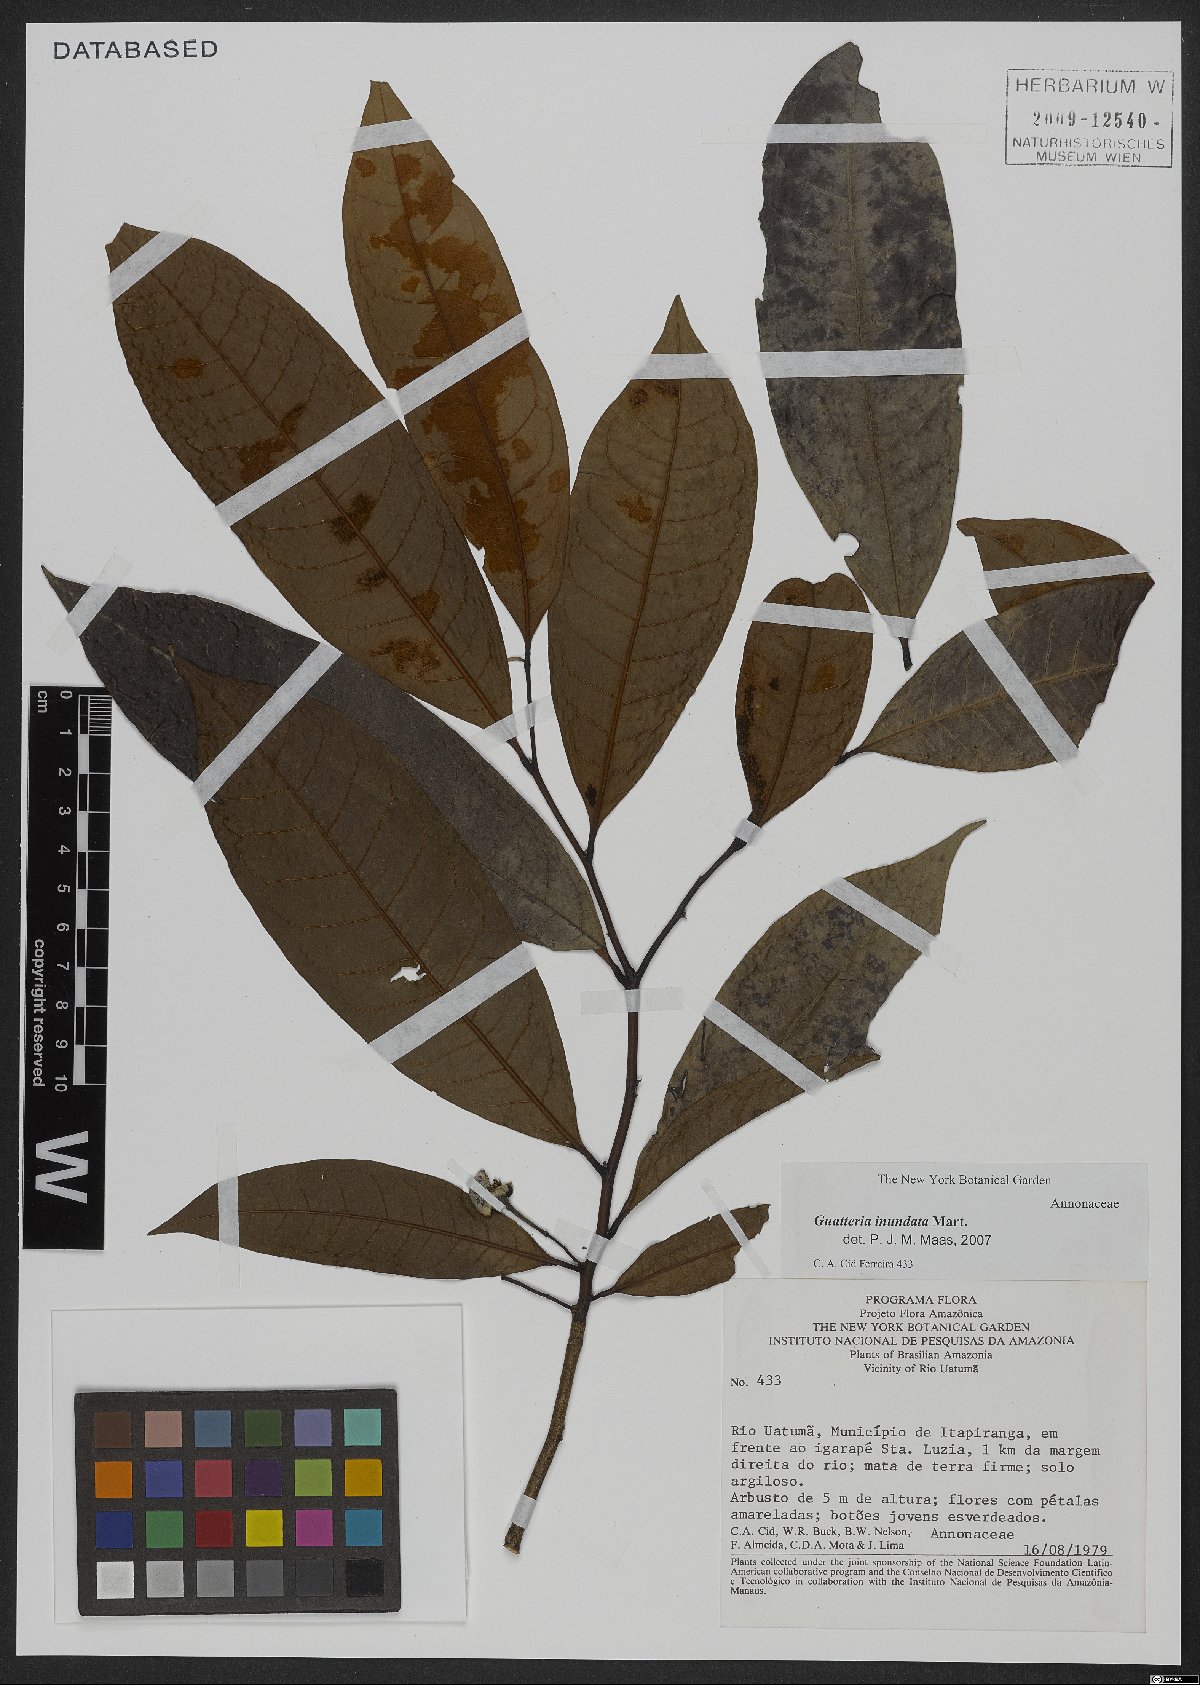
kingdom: Plantae
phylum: Tracheophyta
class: Magnoliopsida
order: Magnoliales
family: Annonaceae
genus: Guatteria
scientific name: Guatteria inundata
